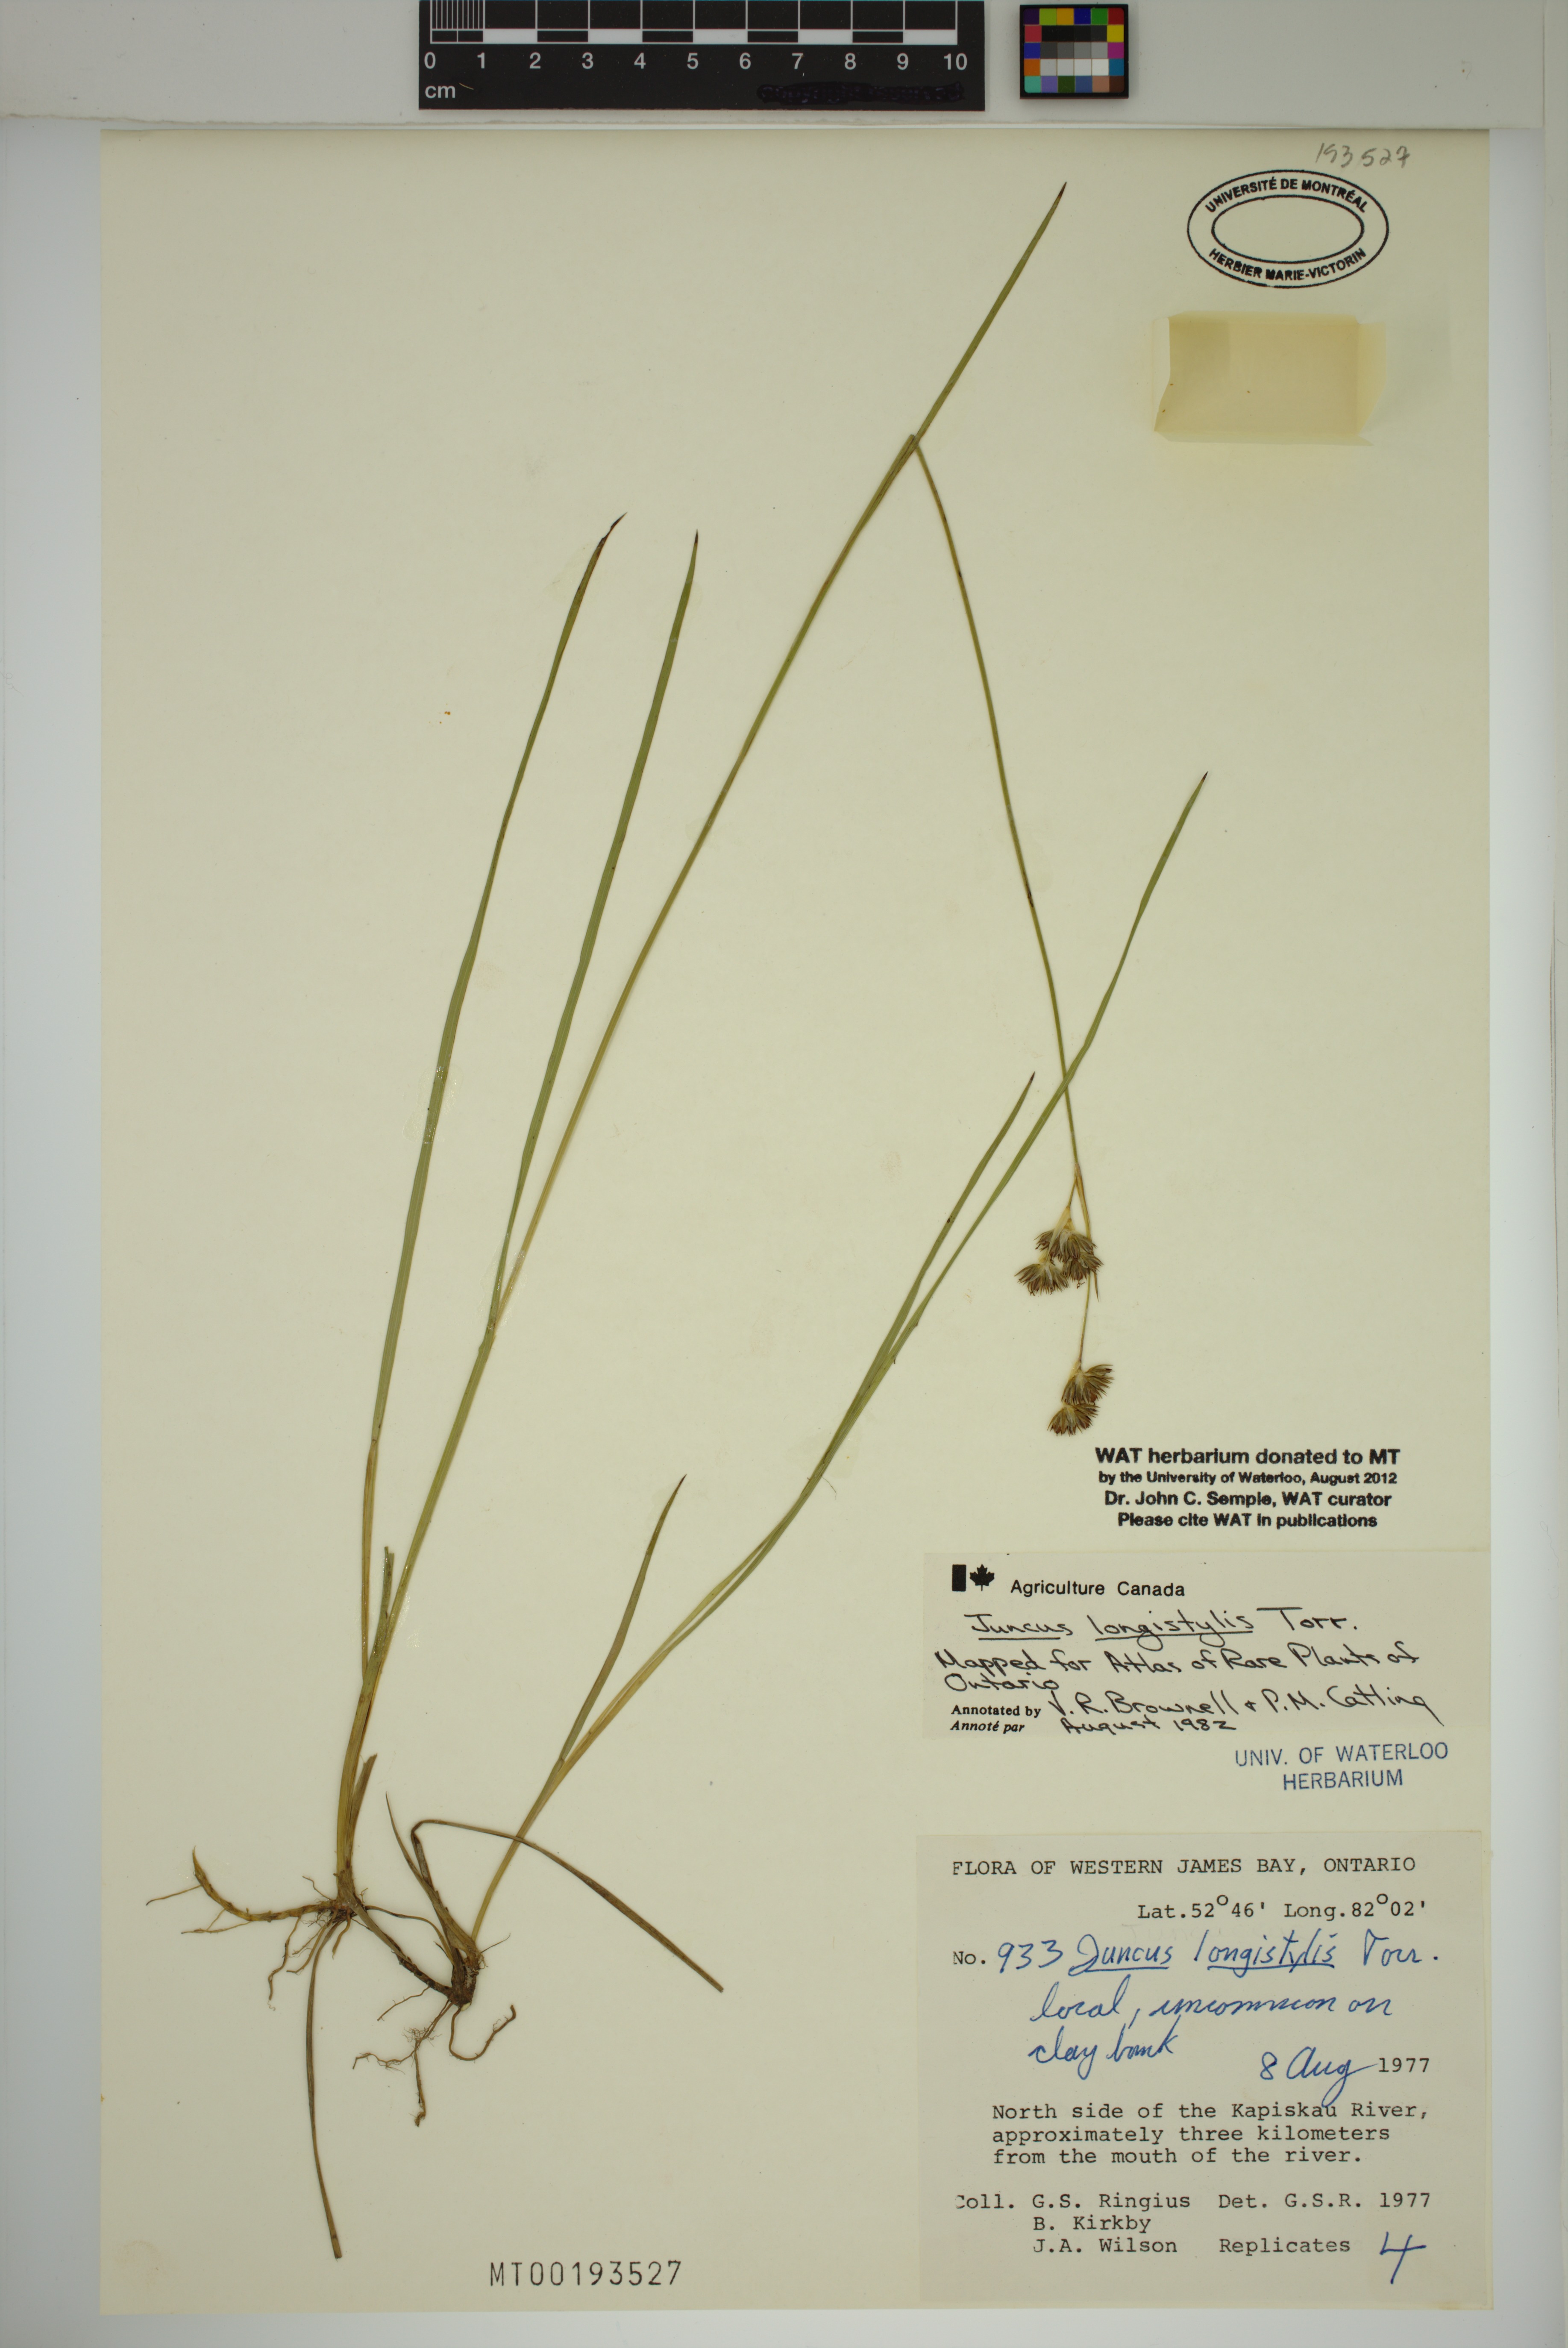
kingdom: Plantae
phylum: Tracheophyta
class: Liliopsida
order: Poales
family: Juncaceae
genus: Juncus
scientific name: Juncus longistylis
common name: Long-style rush
